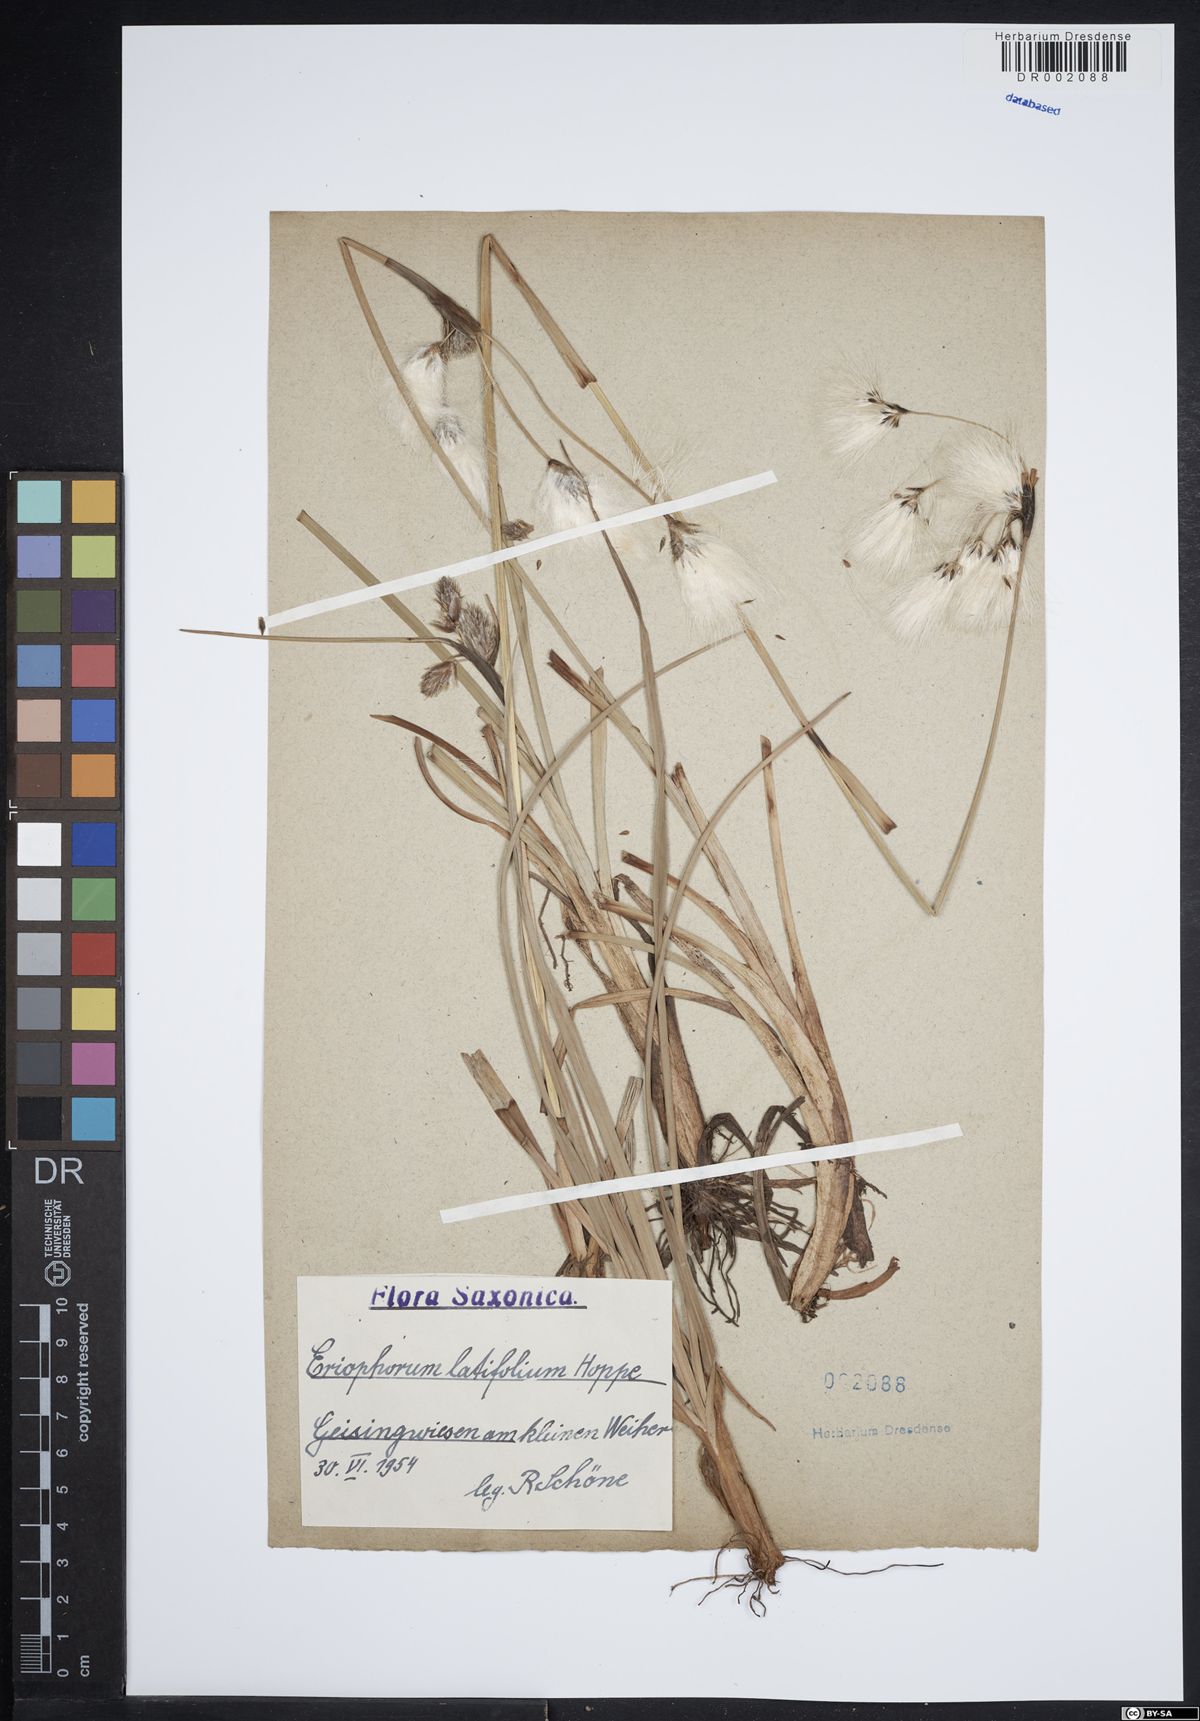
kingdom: Plantae
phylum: Tracheophyta
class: Liliopsida
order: Poales
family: Cyperaceae
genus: Eriophorum
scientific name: Eriophorum latifolium
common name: Broad-leaved cottongrass
